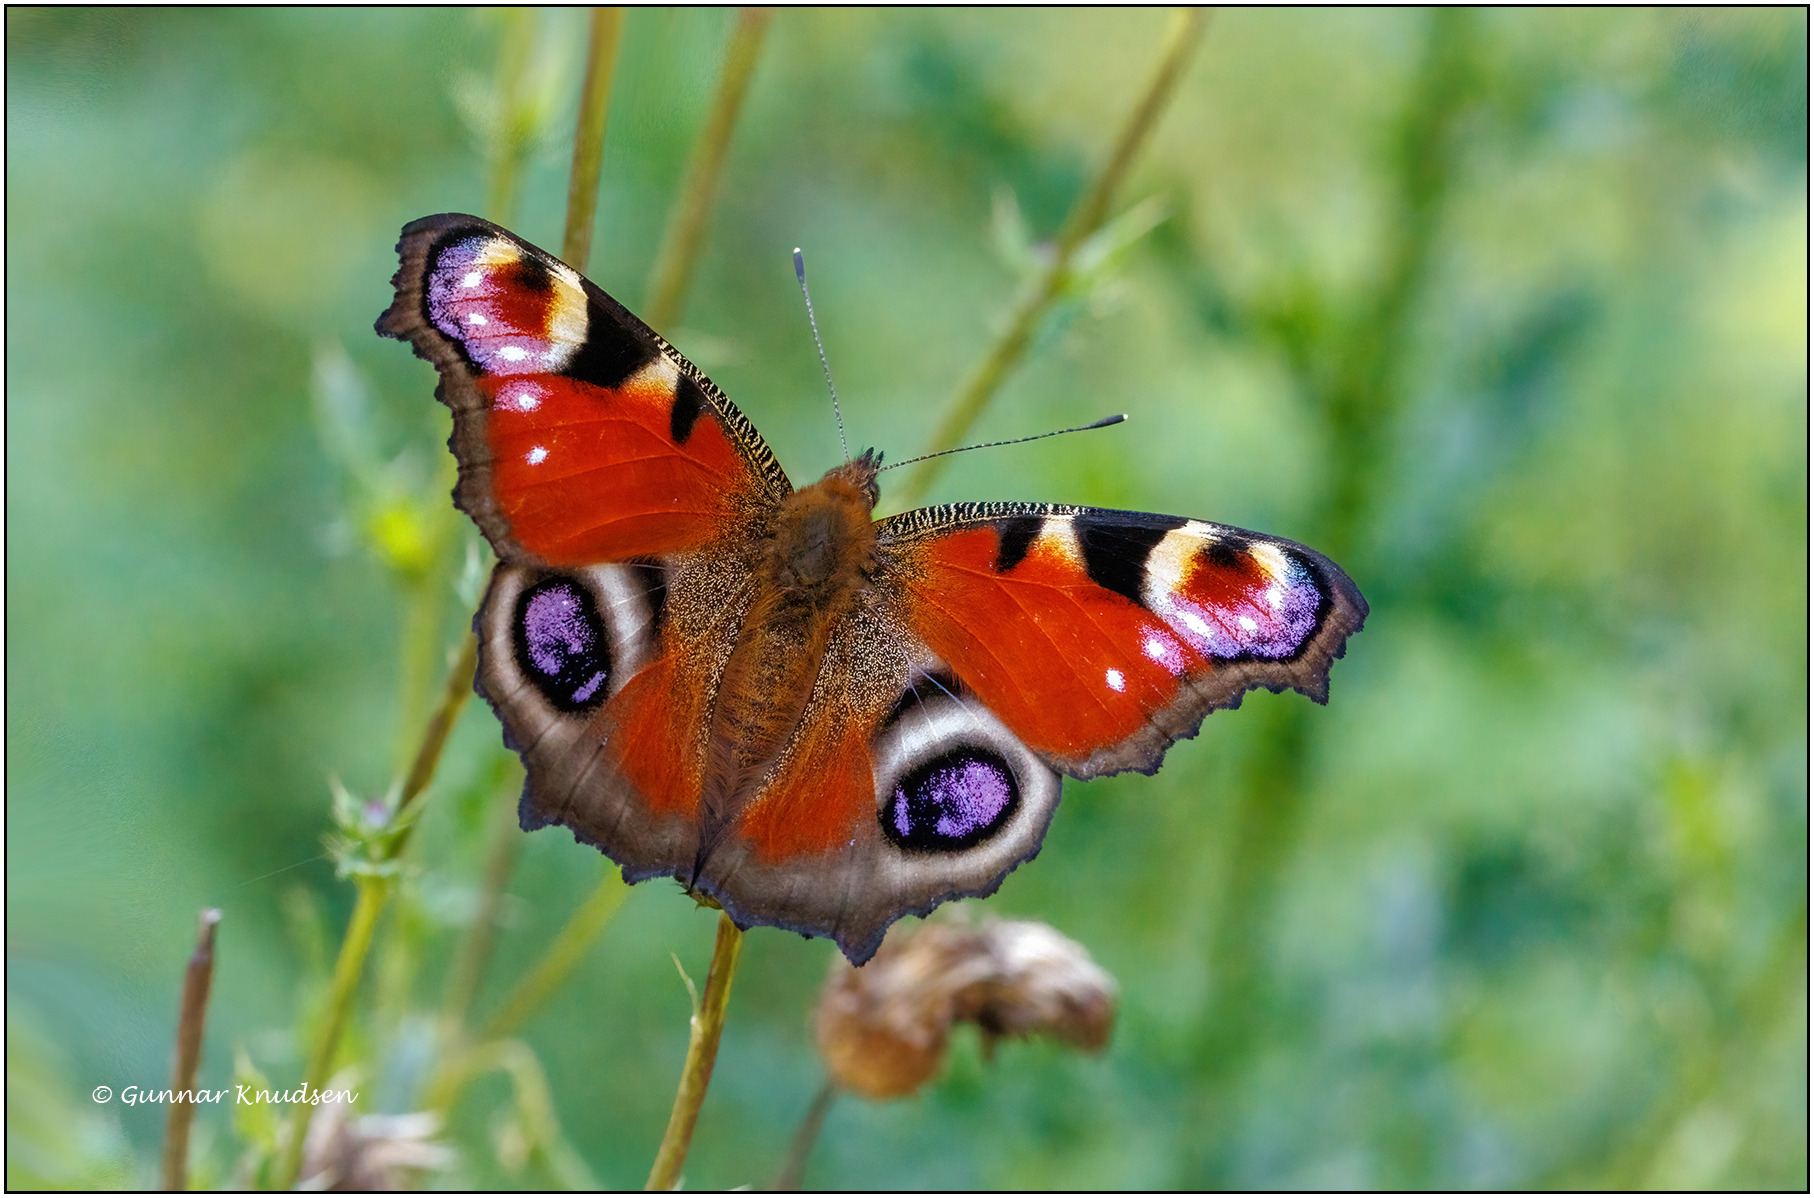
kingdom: Animalia
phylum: Arthropoda
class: Insecta
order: Lepidoptera
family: Nymphalidae
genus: Aglais
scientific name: Aglais io
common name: Dagpåfugleøje
